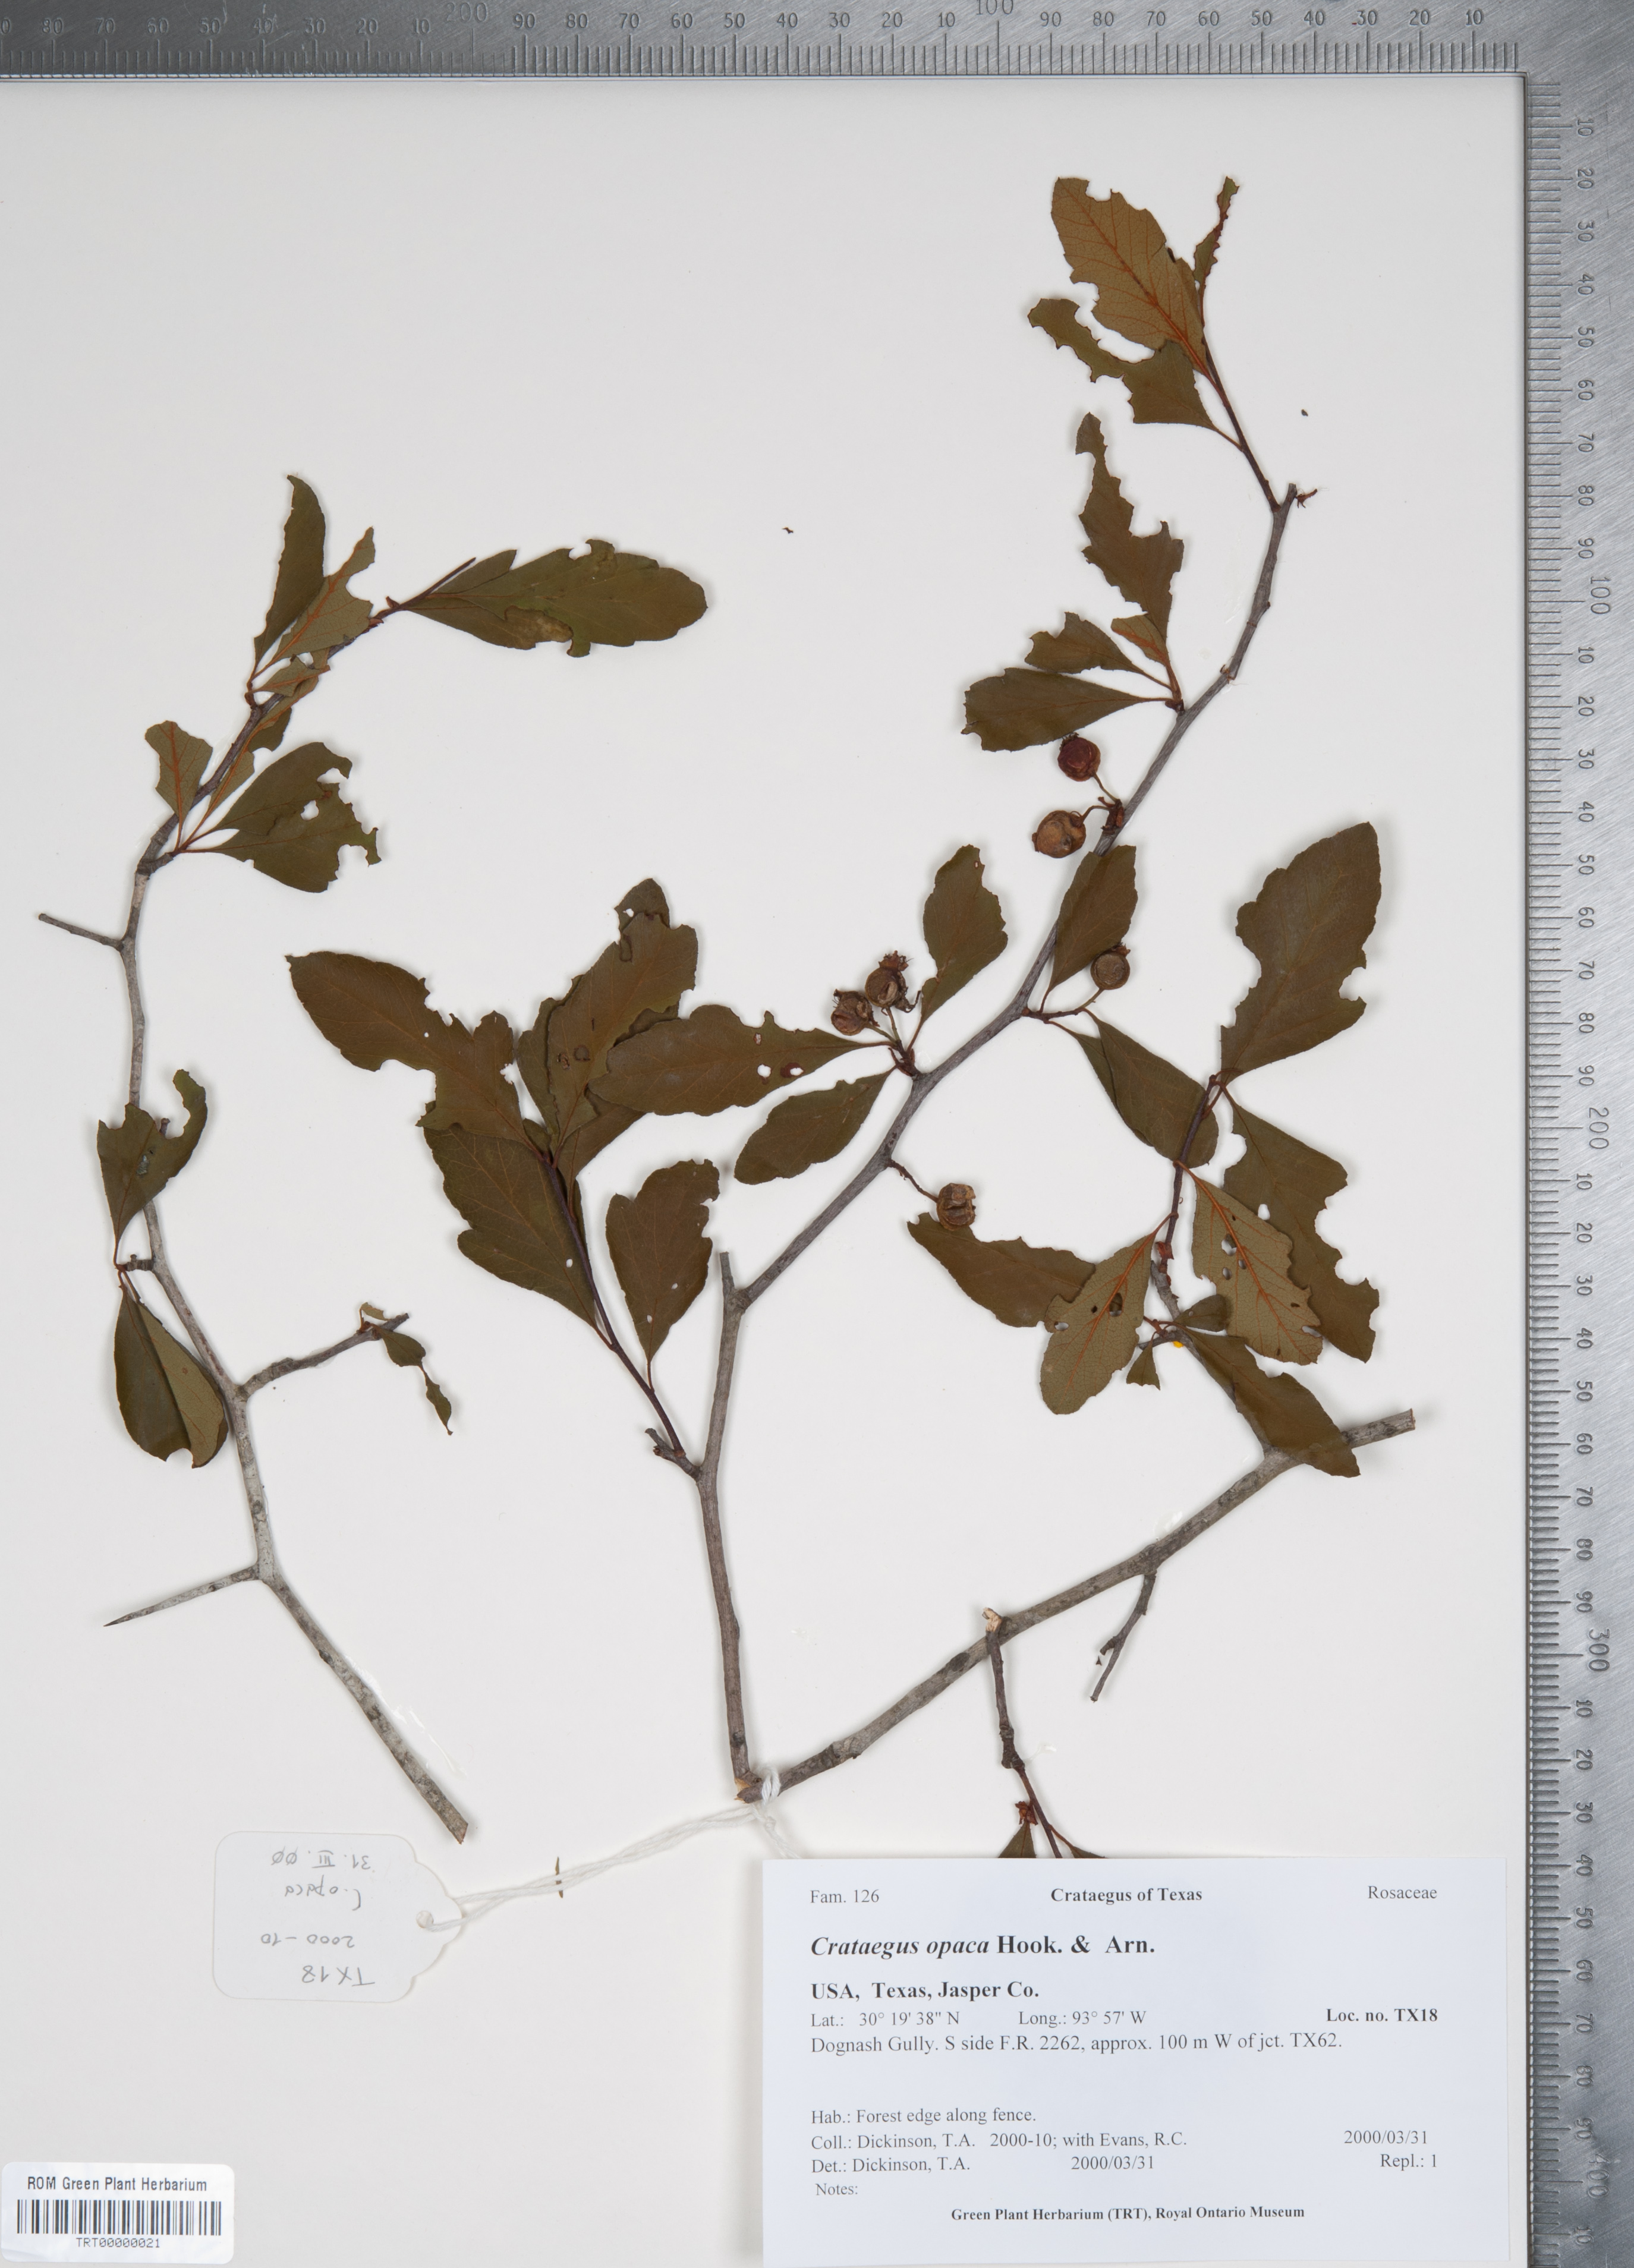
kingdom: Plantae
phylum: Tracheophyta
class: Magnoliopsida
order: Rosales
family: Rosaceae
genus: Crataegus
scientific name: Crataegus opaca
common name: Apple haw
